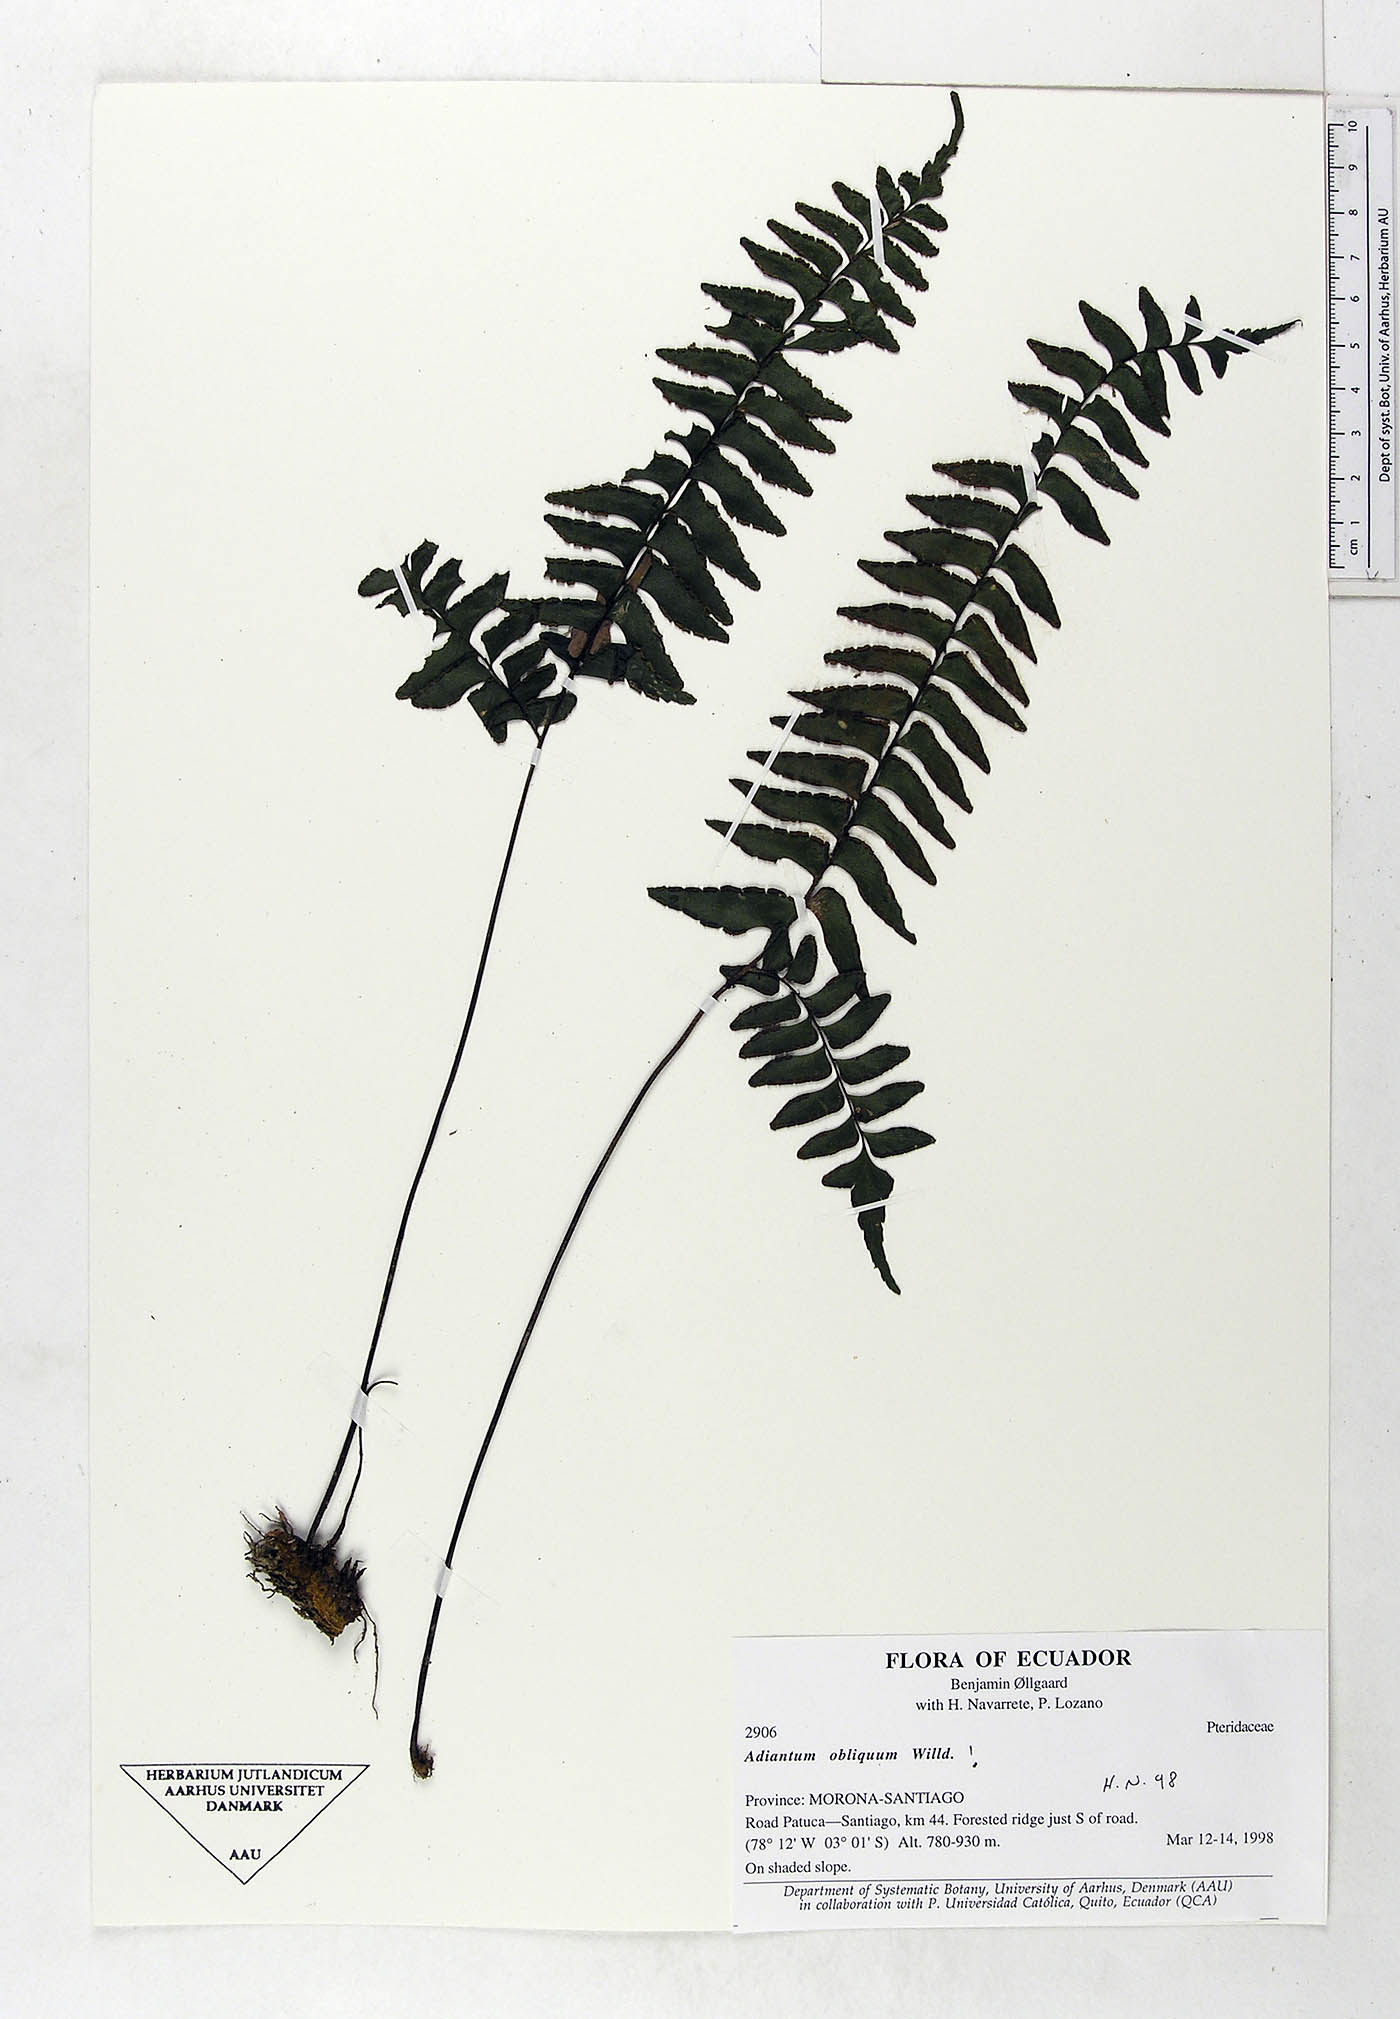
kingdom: Plantae
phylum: Tracheophyta
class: Polypodiopsida
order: Polypodiales
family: Pteridaceae
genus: Adiantum
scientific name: Adiantum obliquum
